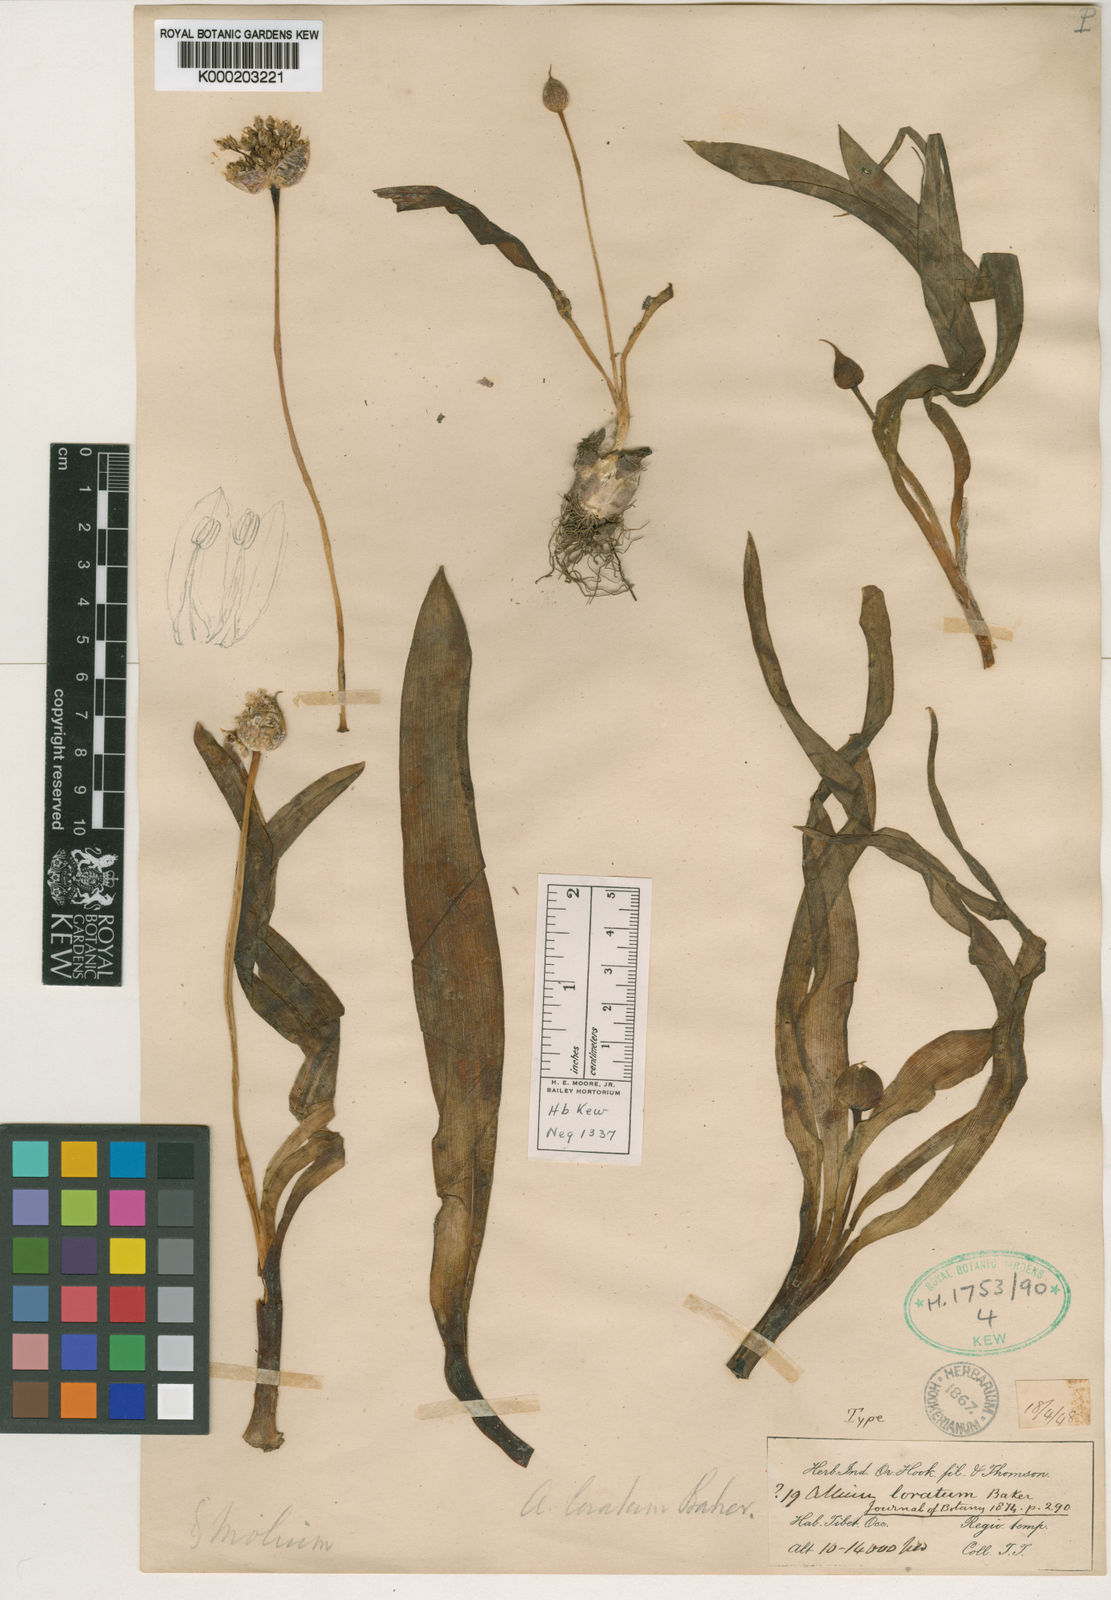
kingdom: Plantae
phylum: Tracheophyta
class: Liliopsida
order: Asparagales
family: Amaryllidaceae
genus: Allium
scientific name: Allium loratum
